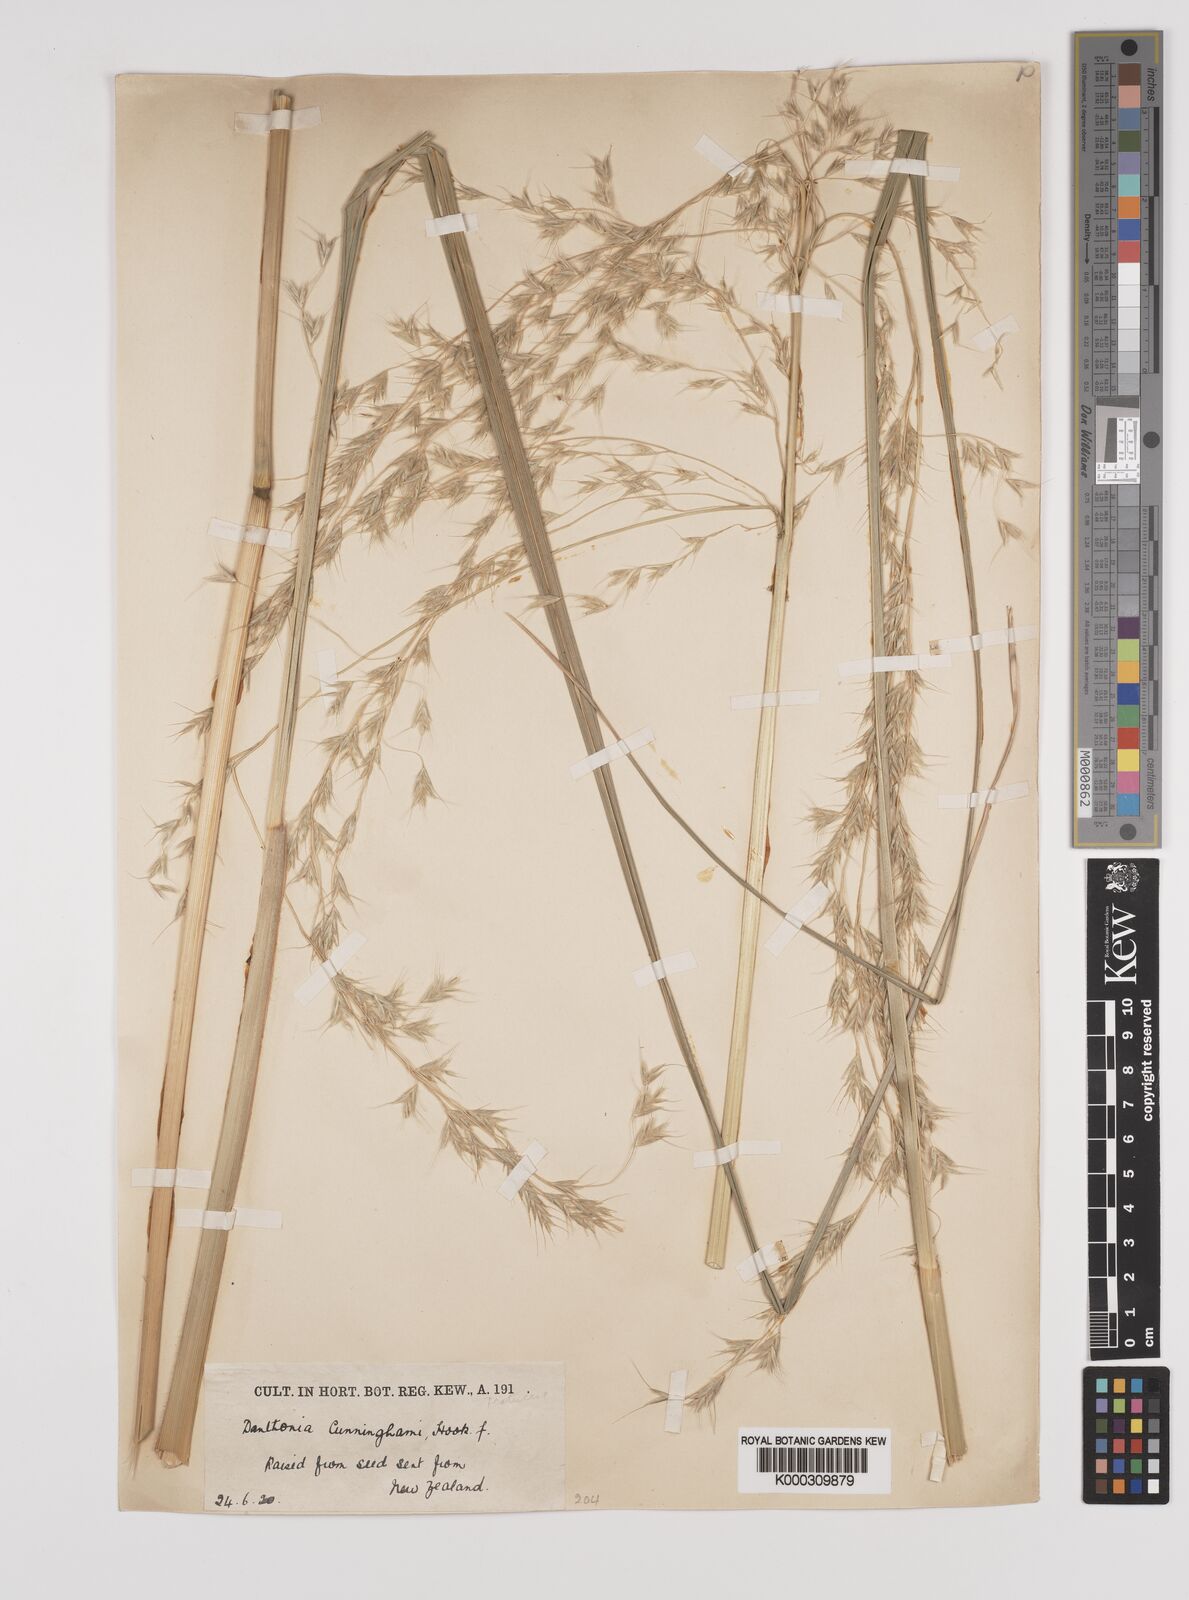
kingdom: Plantae
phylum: Tracheophyta
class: Liliopsida
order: Poales
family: Poaceae
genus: Chionochloa
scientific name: Chionochloa conspicua
